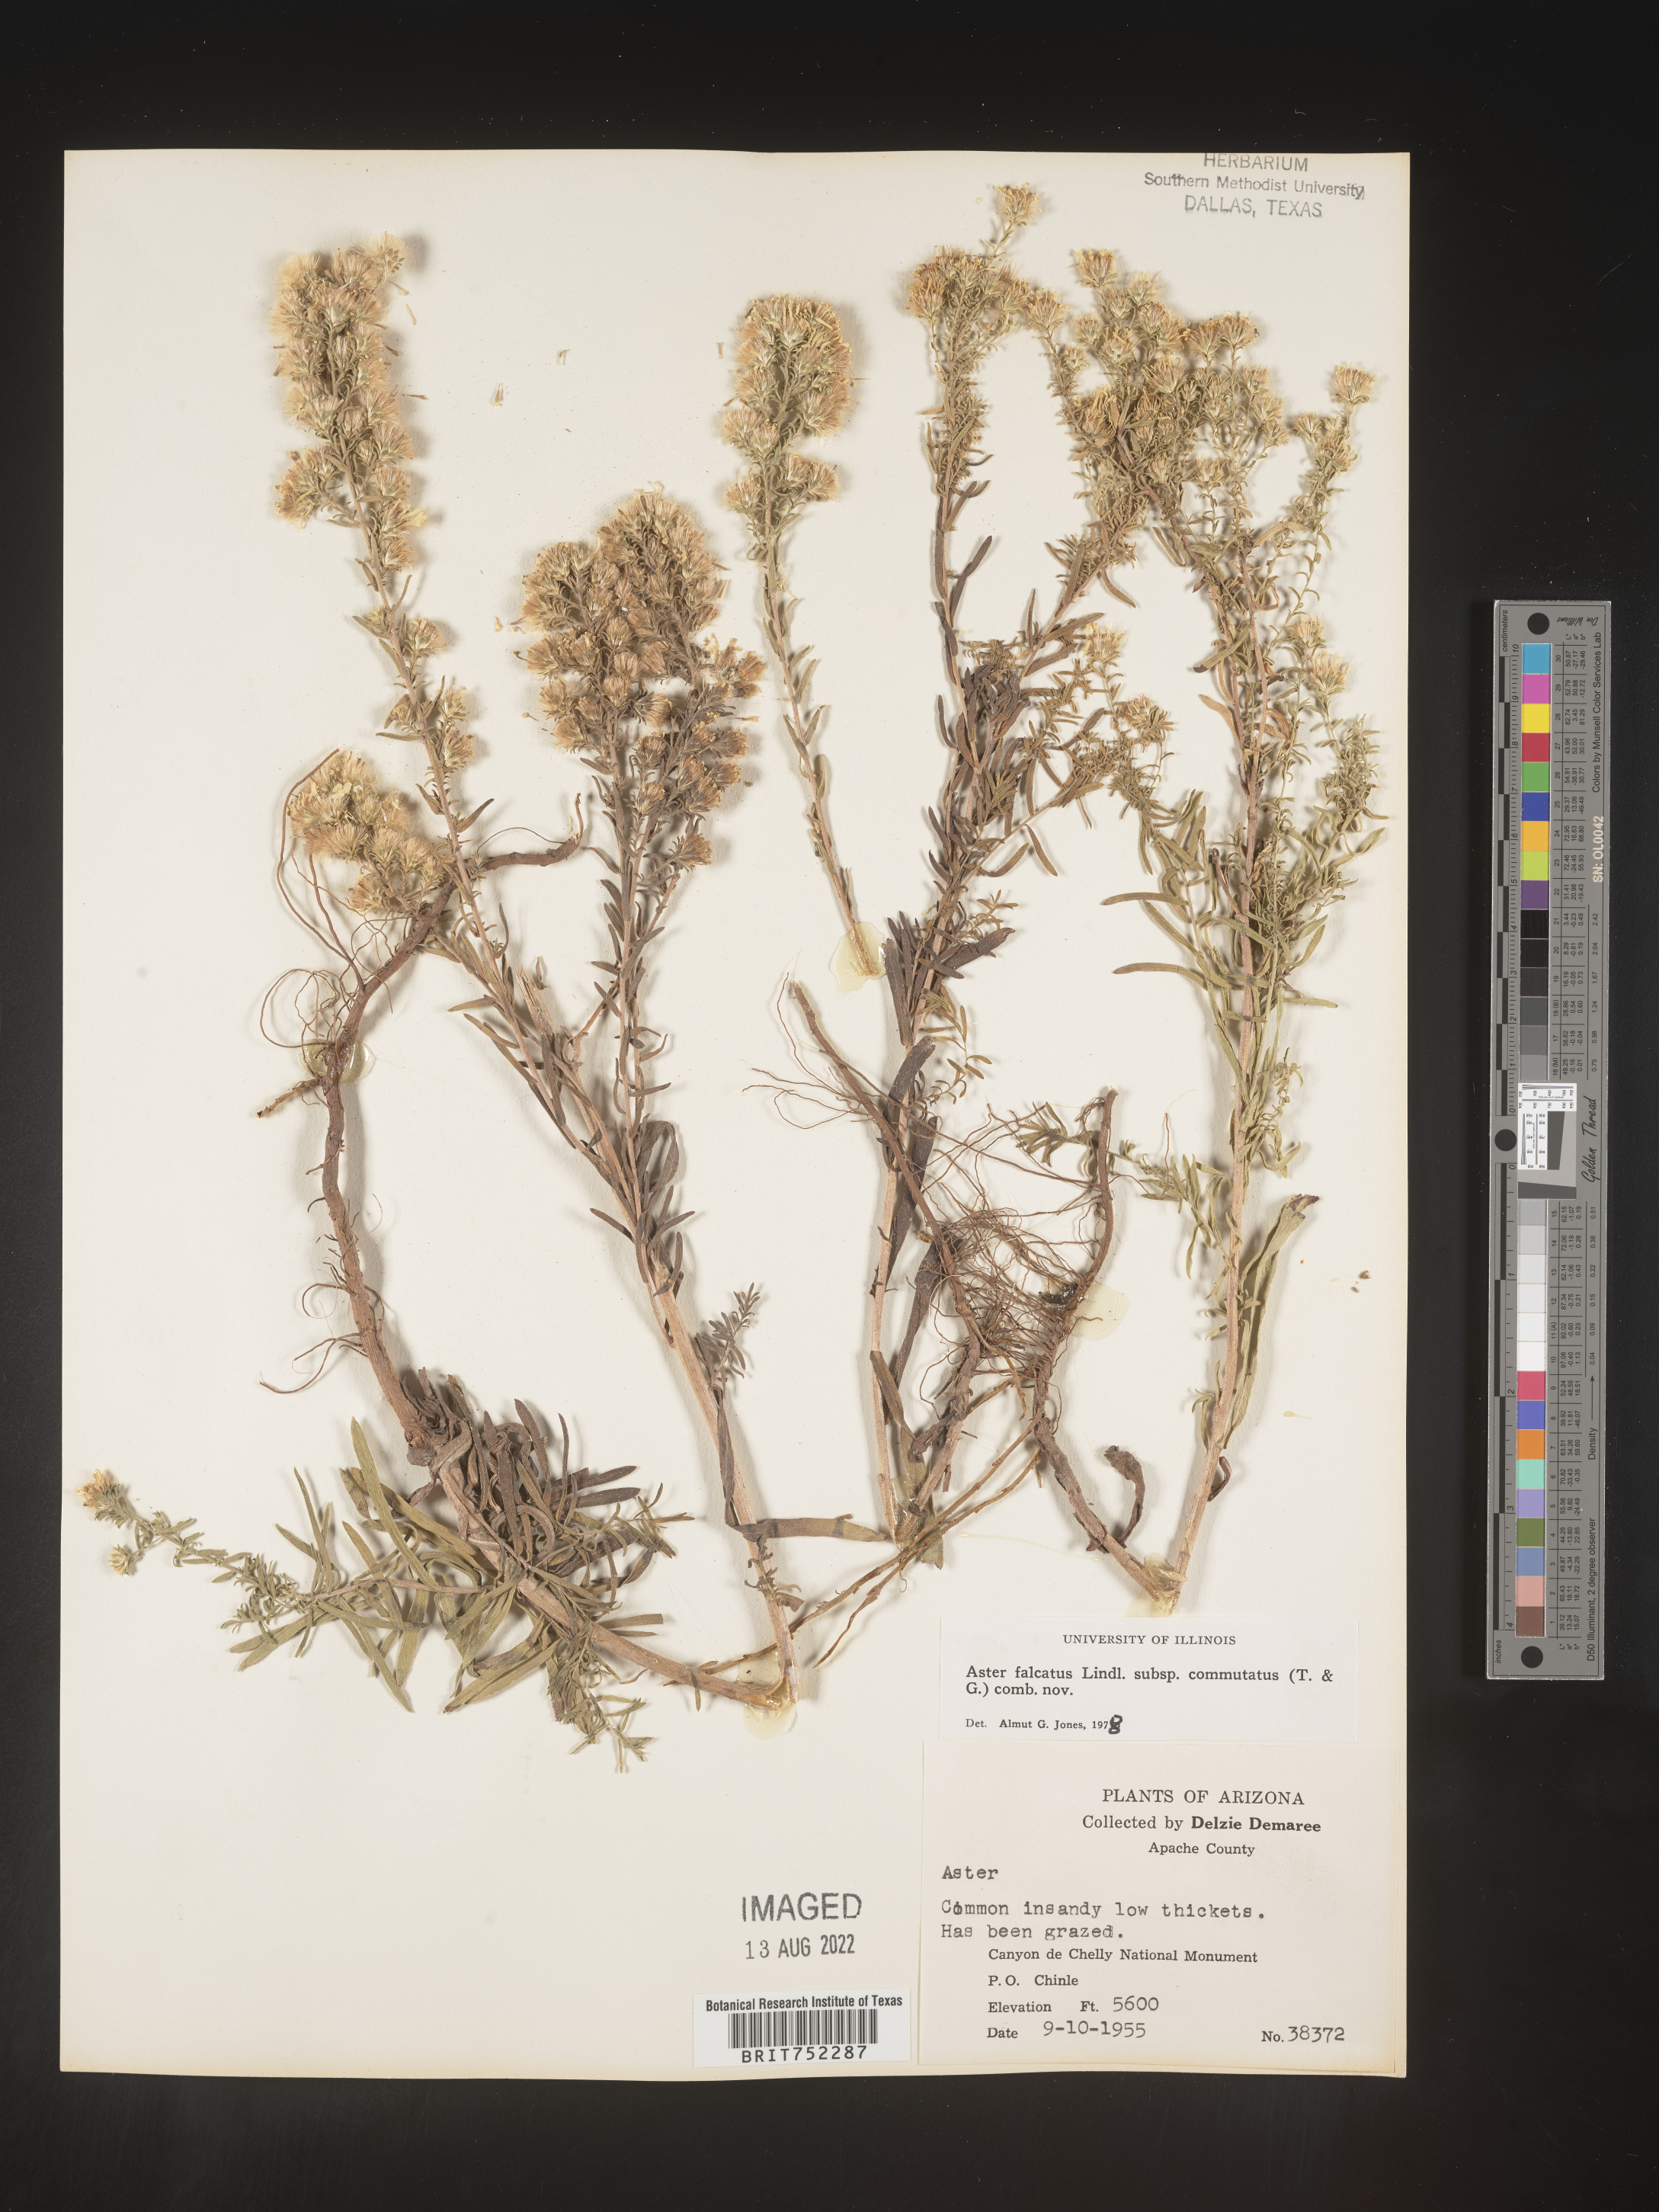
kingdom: Plantae
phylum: Tracheophyta
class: Magnoliopsida
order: Asterales
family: Asteraceae
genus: Symphyotrichum
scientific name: Symphyotrichum falcatum
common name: Creeping white prairie aster
